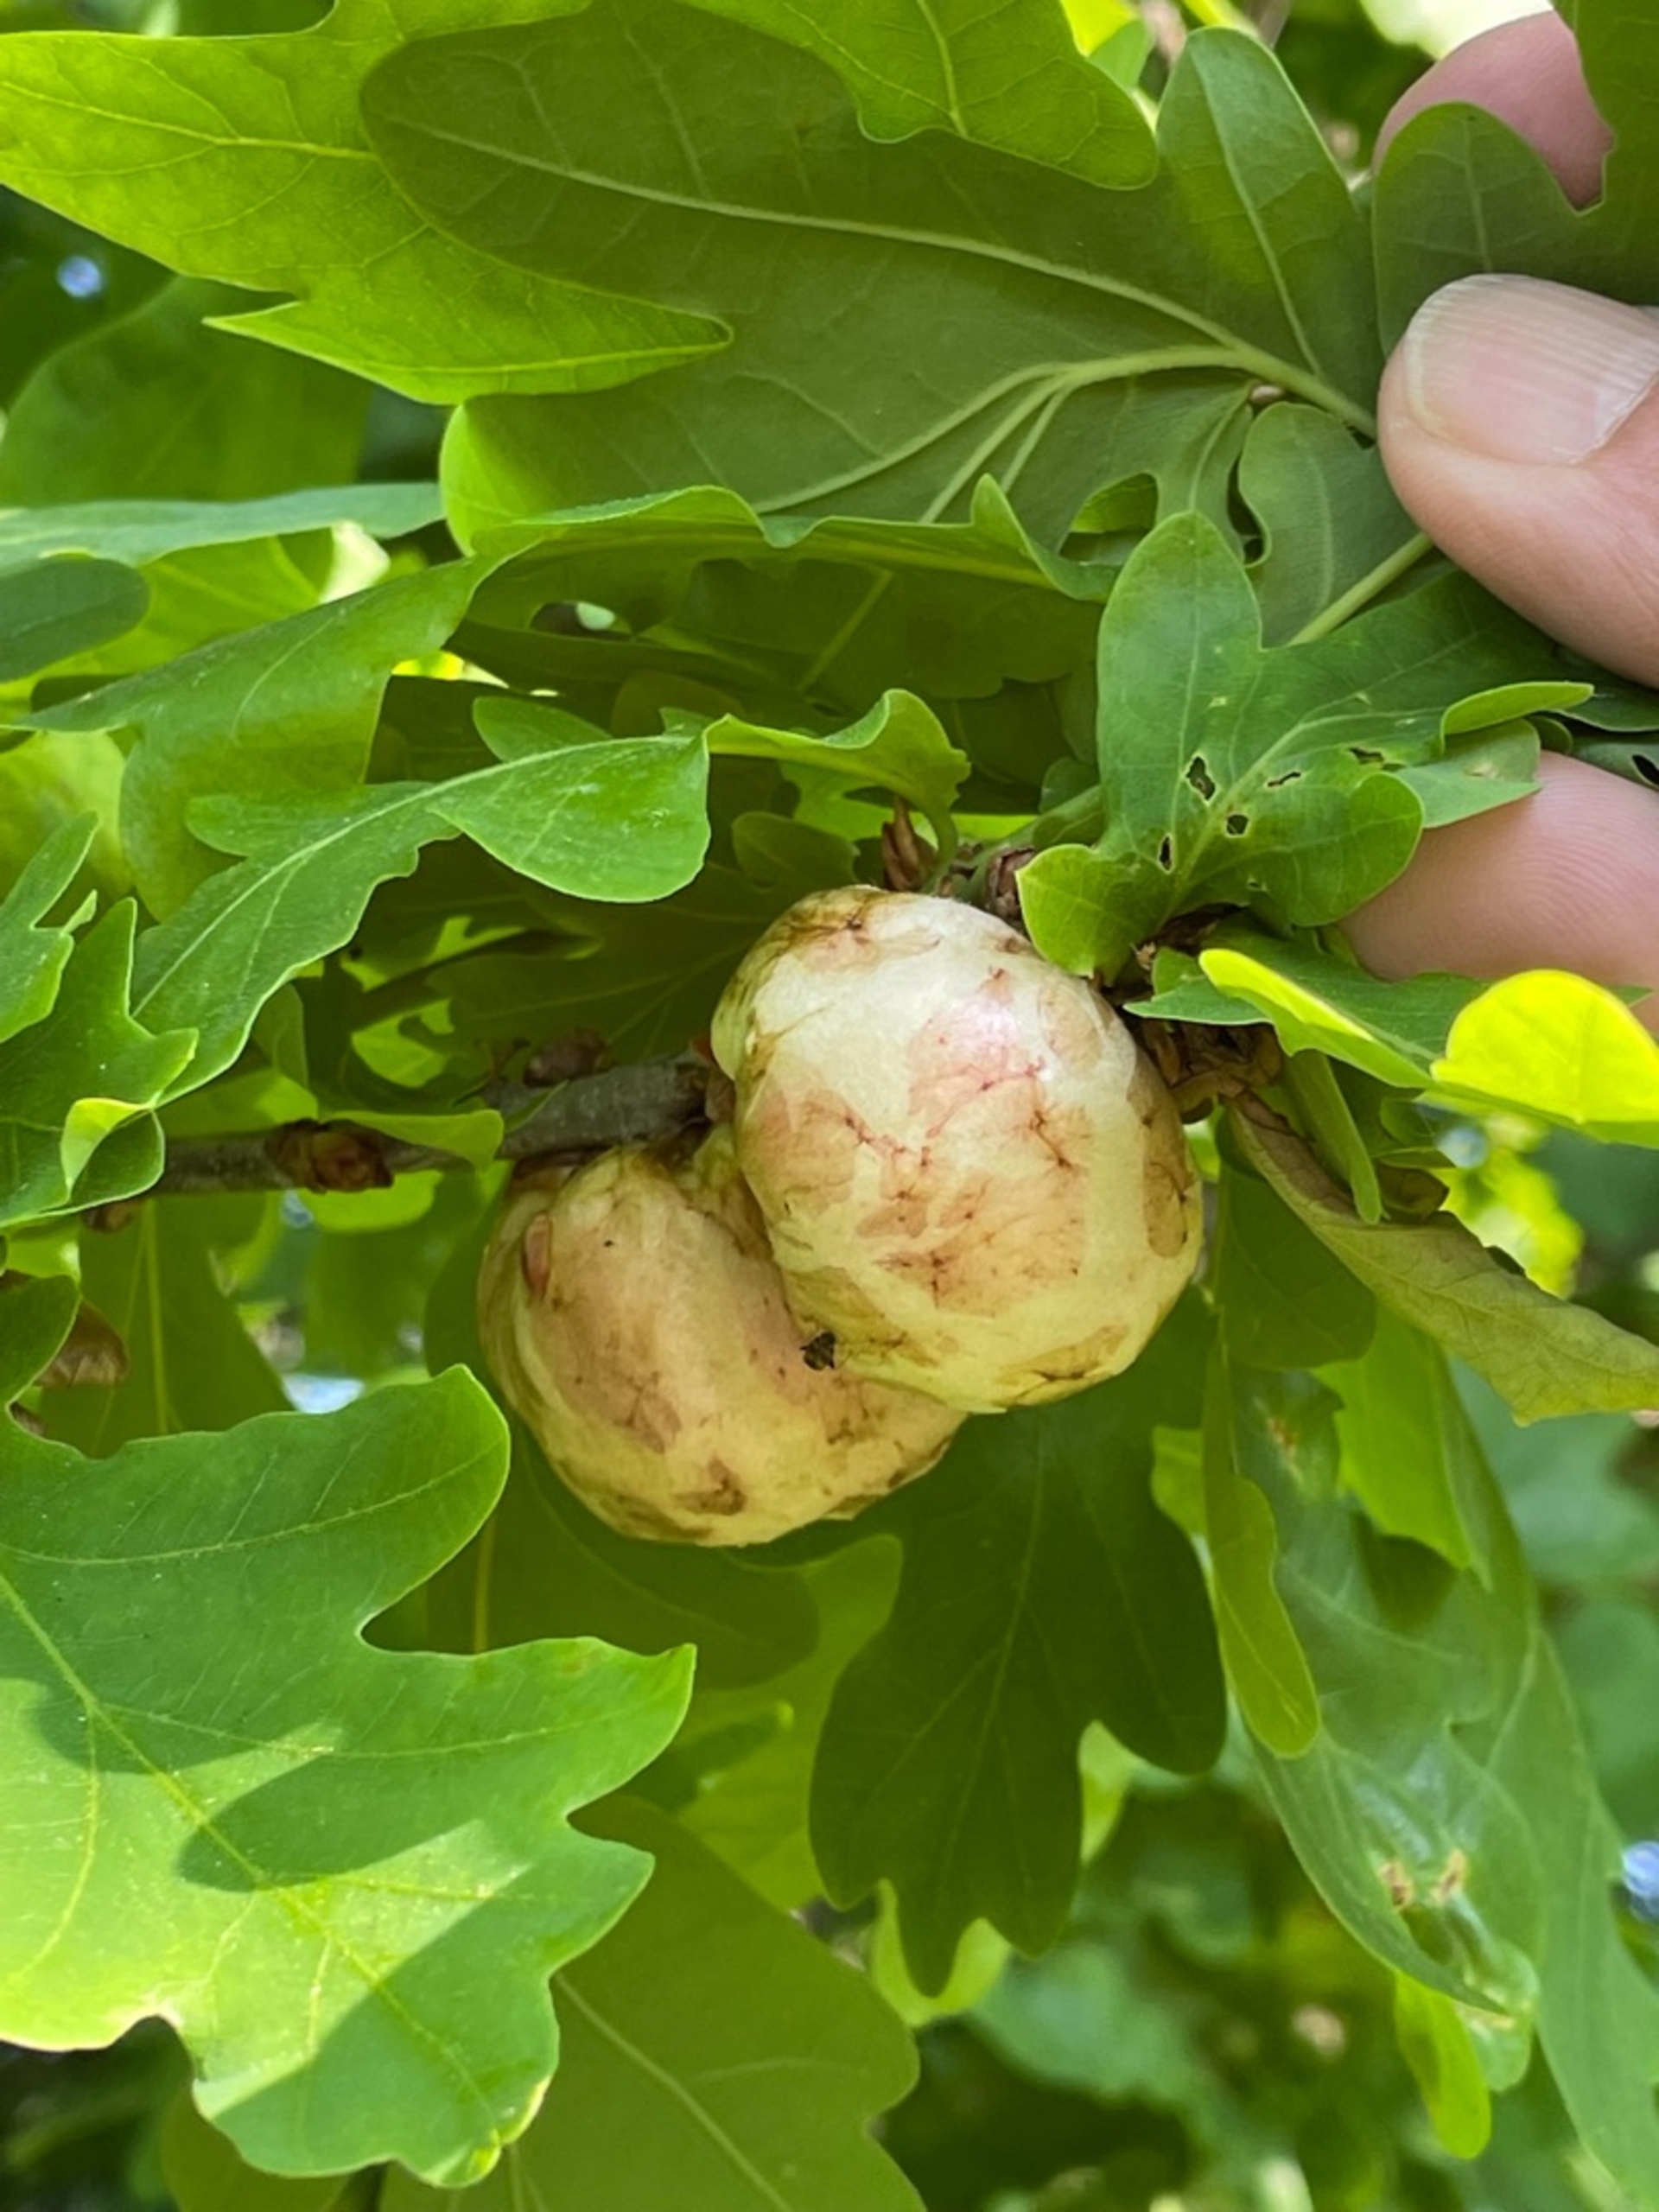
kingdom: Animalia
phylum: Arthropoda
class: Insecta
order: Hymenoptera
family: Cynipidae
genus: Biorhiza
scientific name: Biorhiza pallida
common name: Ege-kartoffelgalhveps
